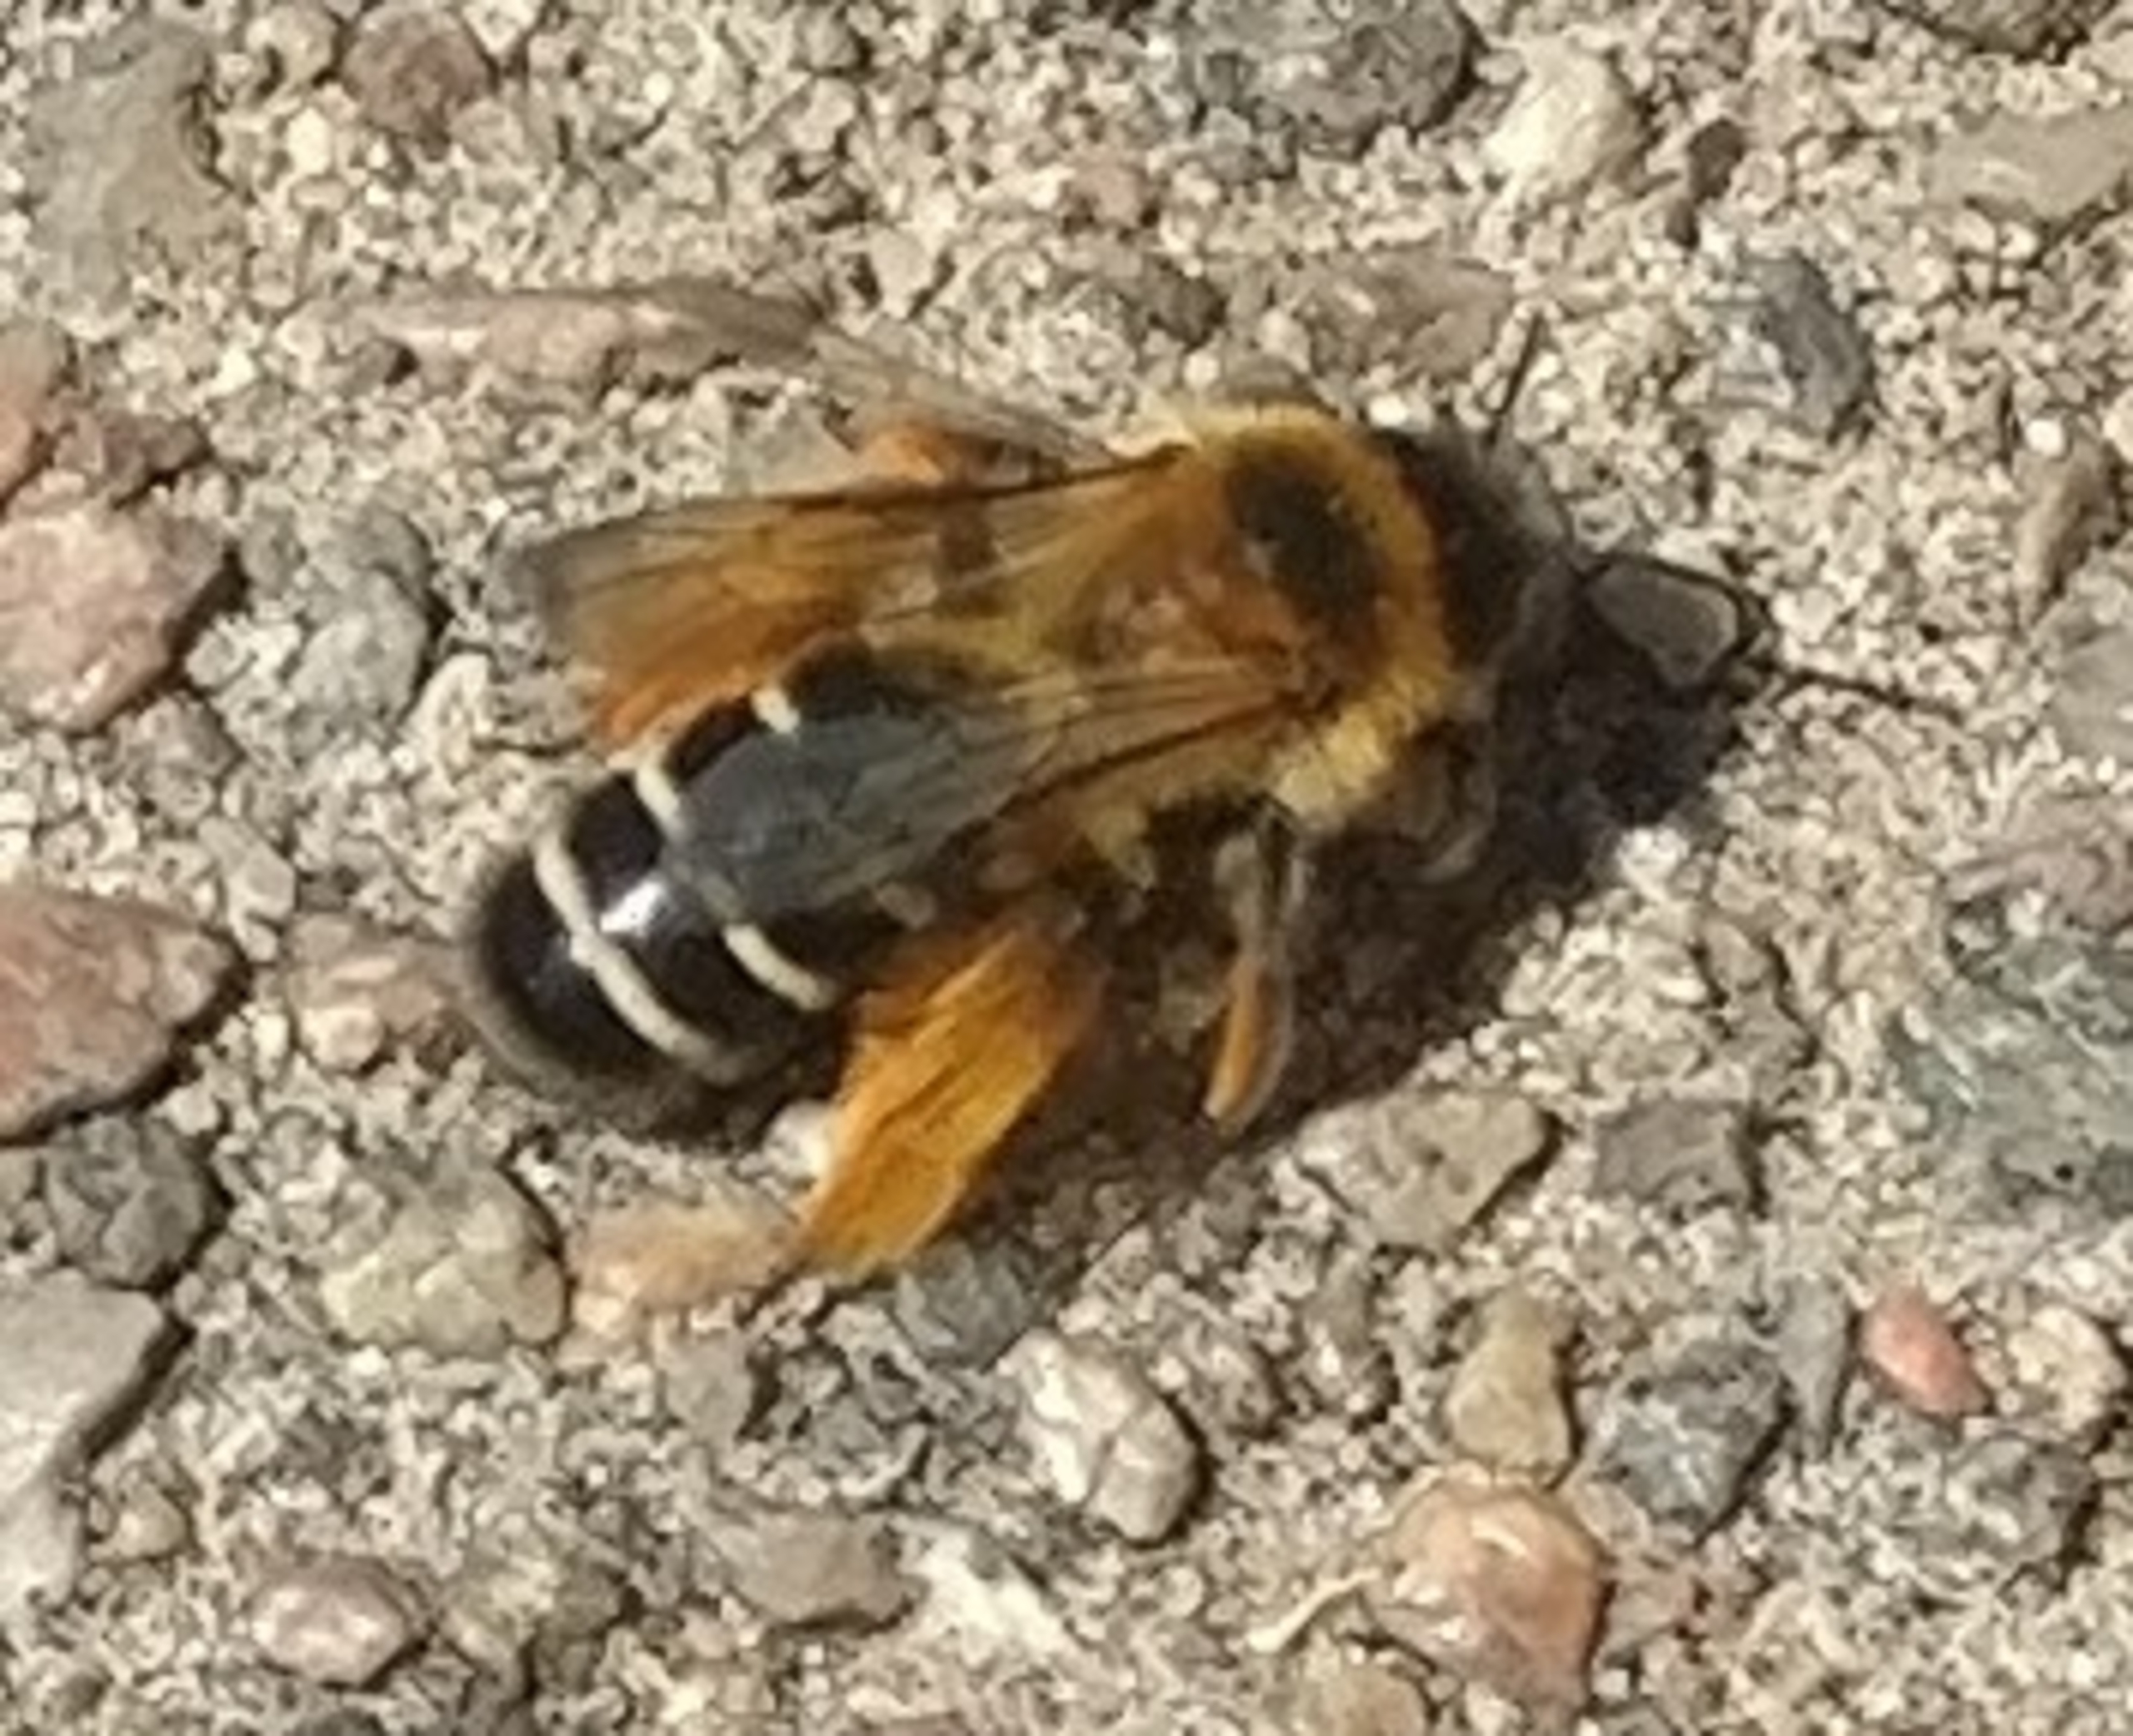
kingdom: Animalia
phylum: Arthropoda
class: Insecta
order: Hymenoptera
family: Melittidae
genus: Dasypoda
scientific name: Dasypoda hirtipes
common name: Pragtbuksebi
